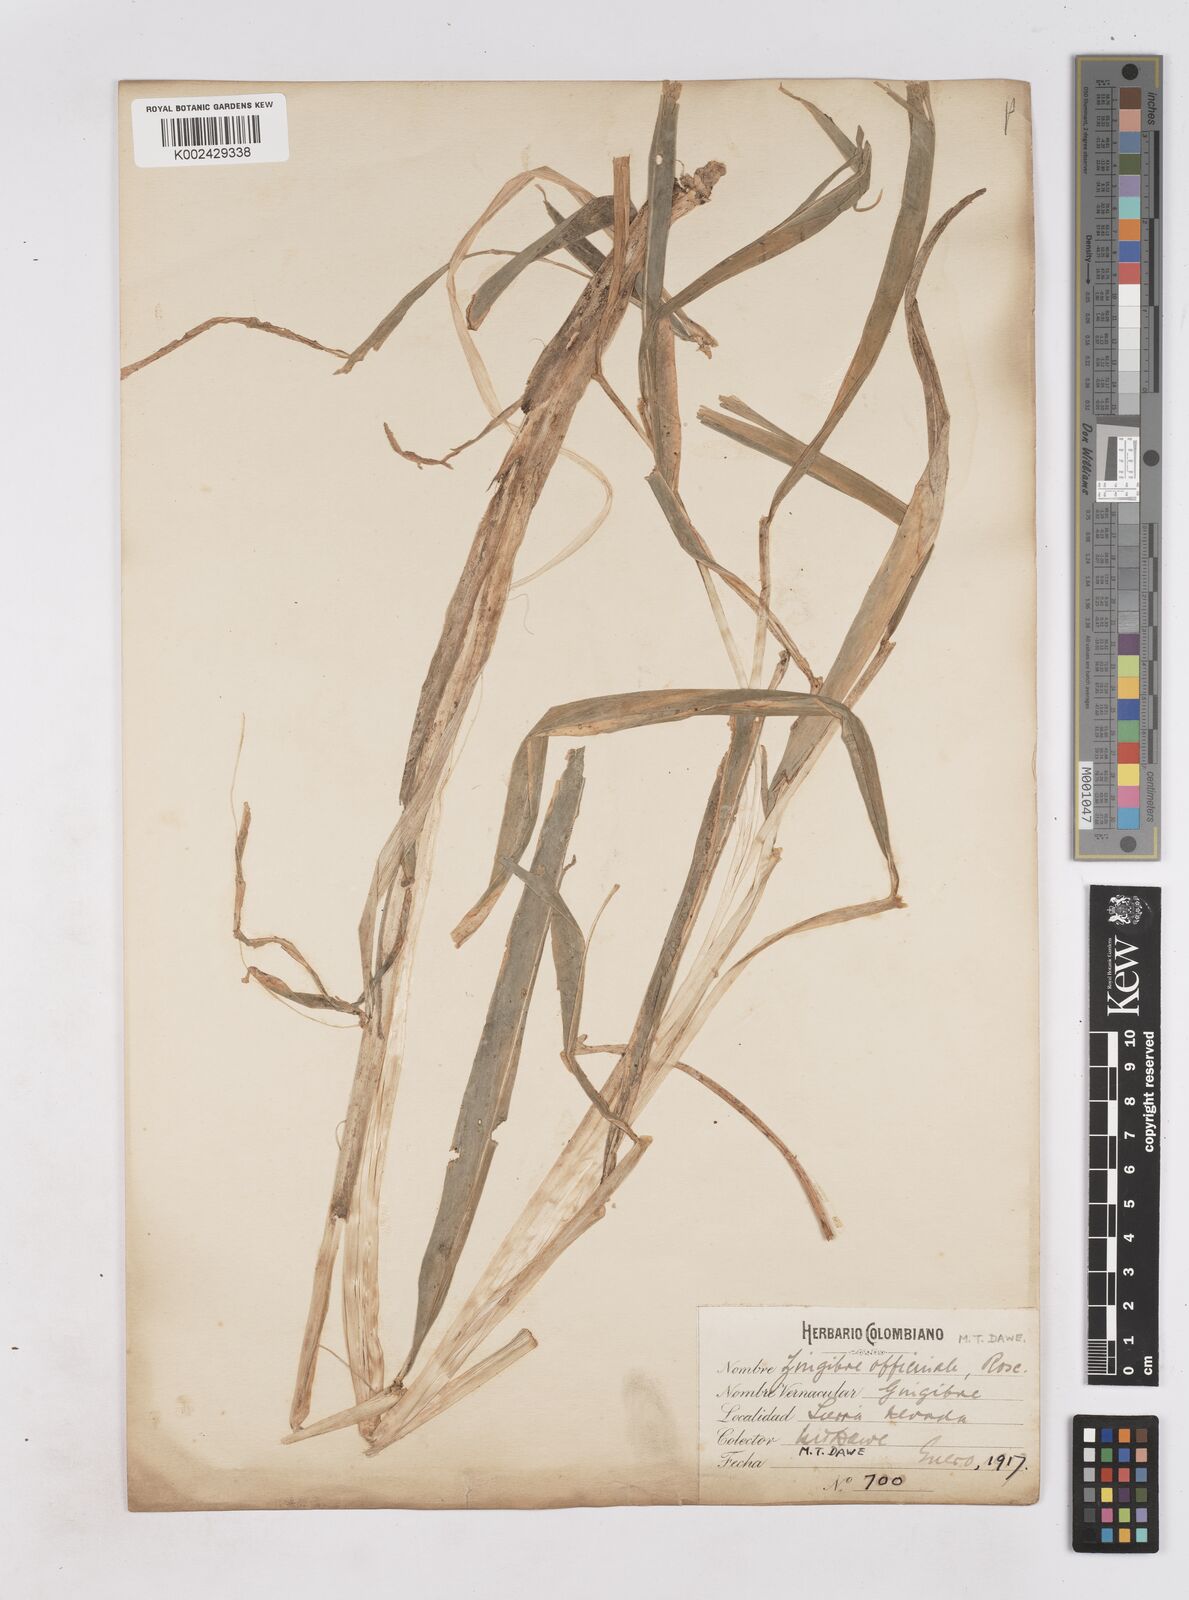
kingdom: Plantae
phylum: Tracheophyta
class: Liliopsida
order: Zingiberales
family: Zingiberaceae
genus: Zingiber
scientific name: Zingiber officinale
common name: Ginger
